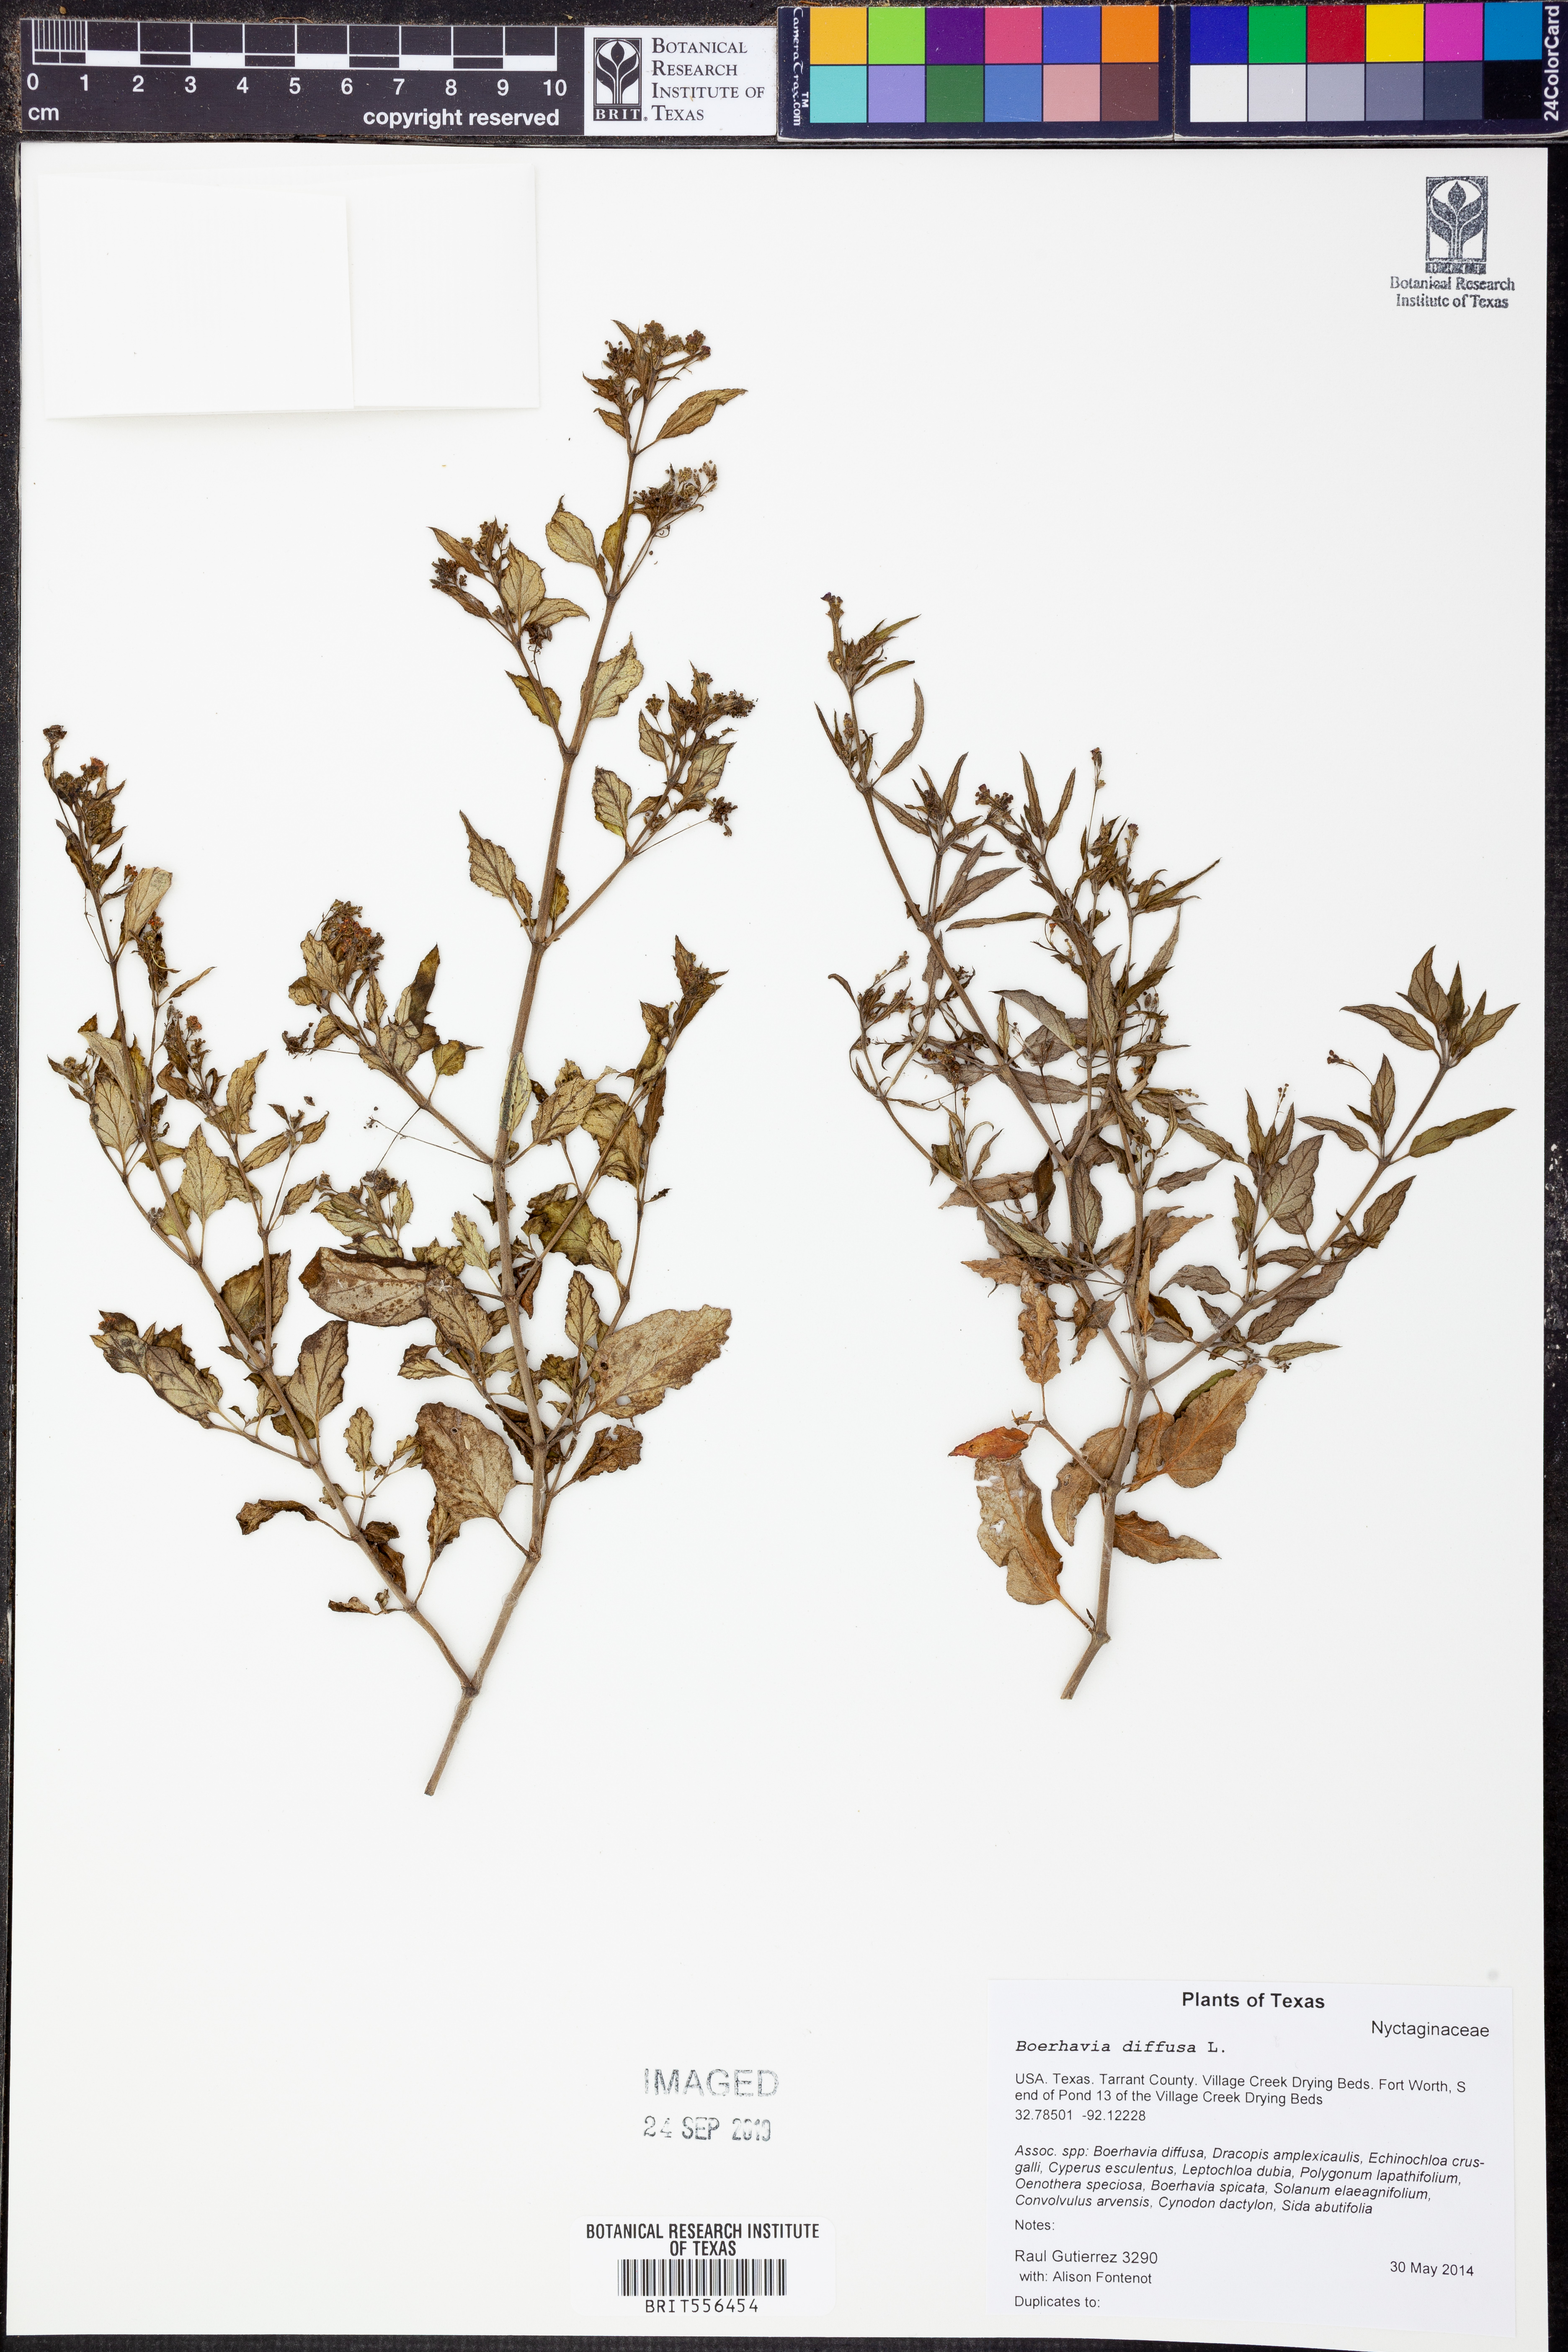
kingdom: Plantae
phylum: Tracheophyta
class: Magnoliopsida
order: Caryophyllales
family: Nyctaginaceae
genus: Boerhavia
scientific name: Boerhavia diffusa
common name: Red spiderling
